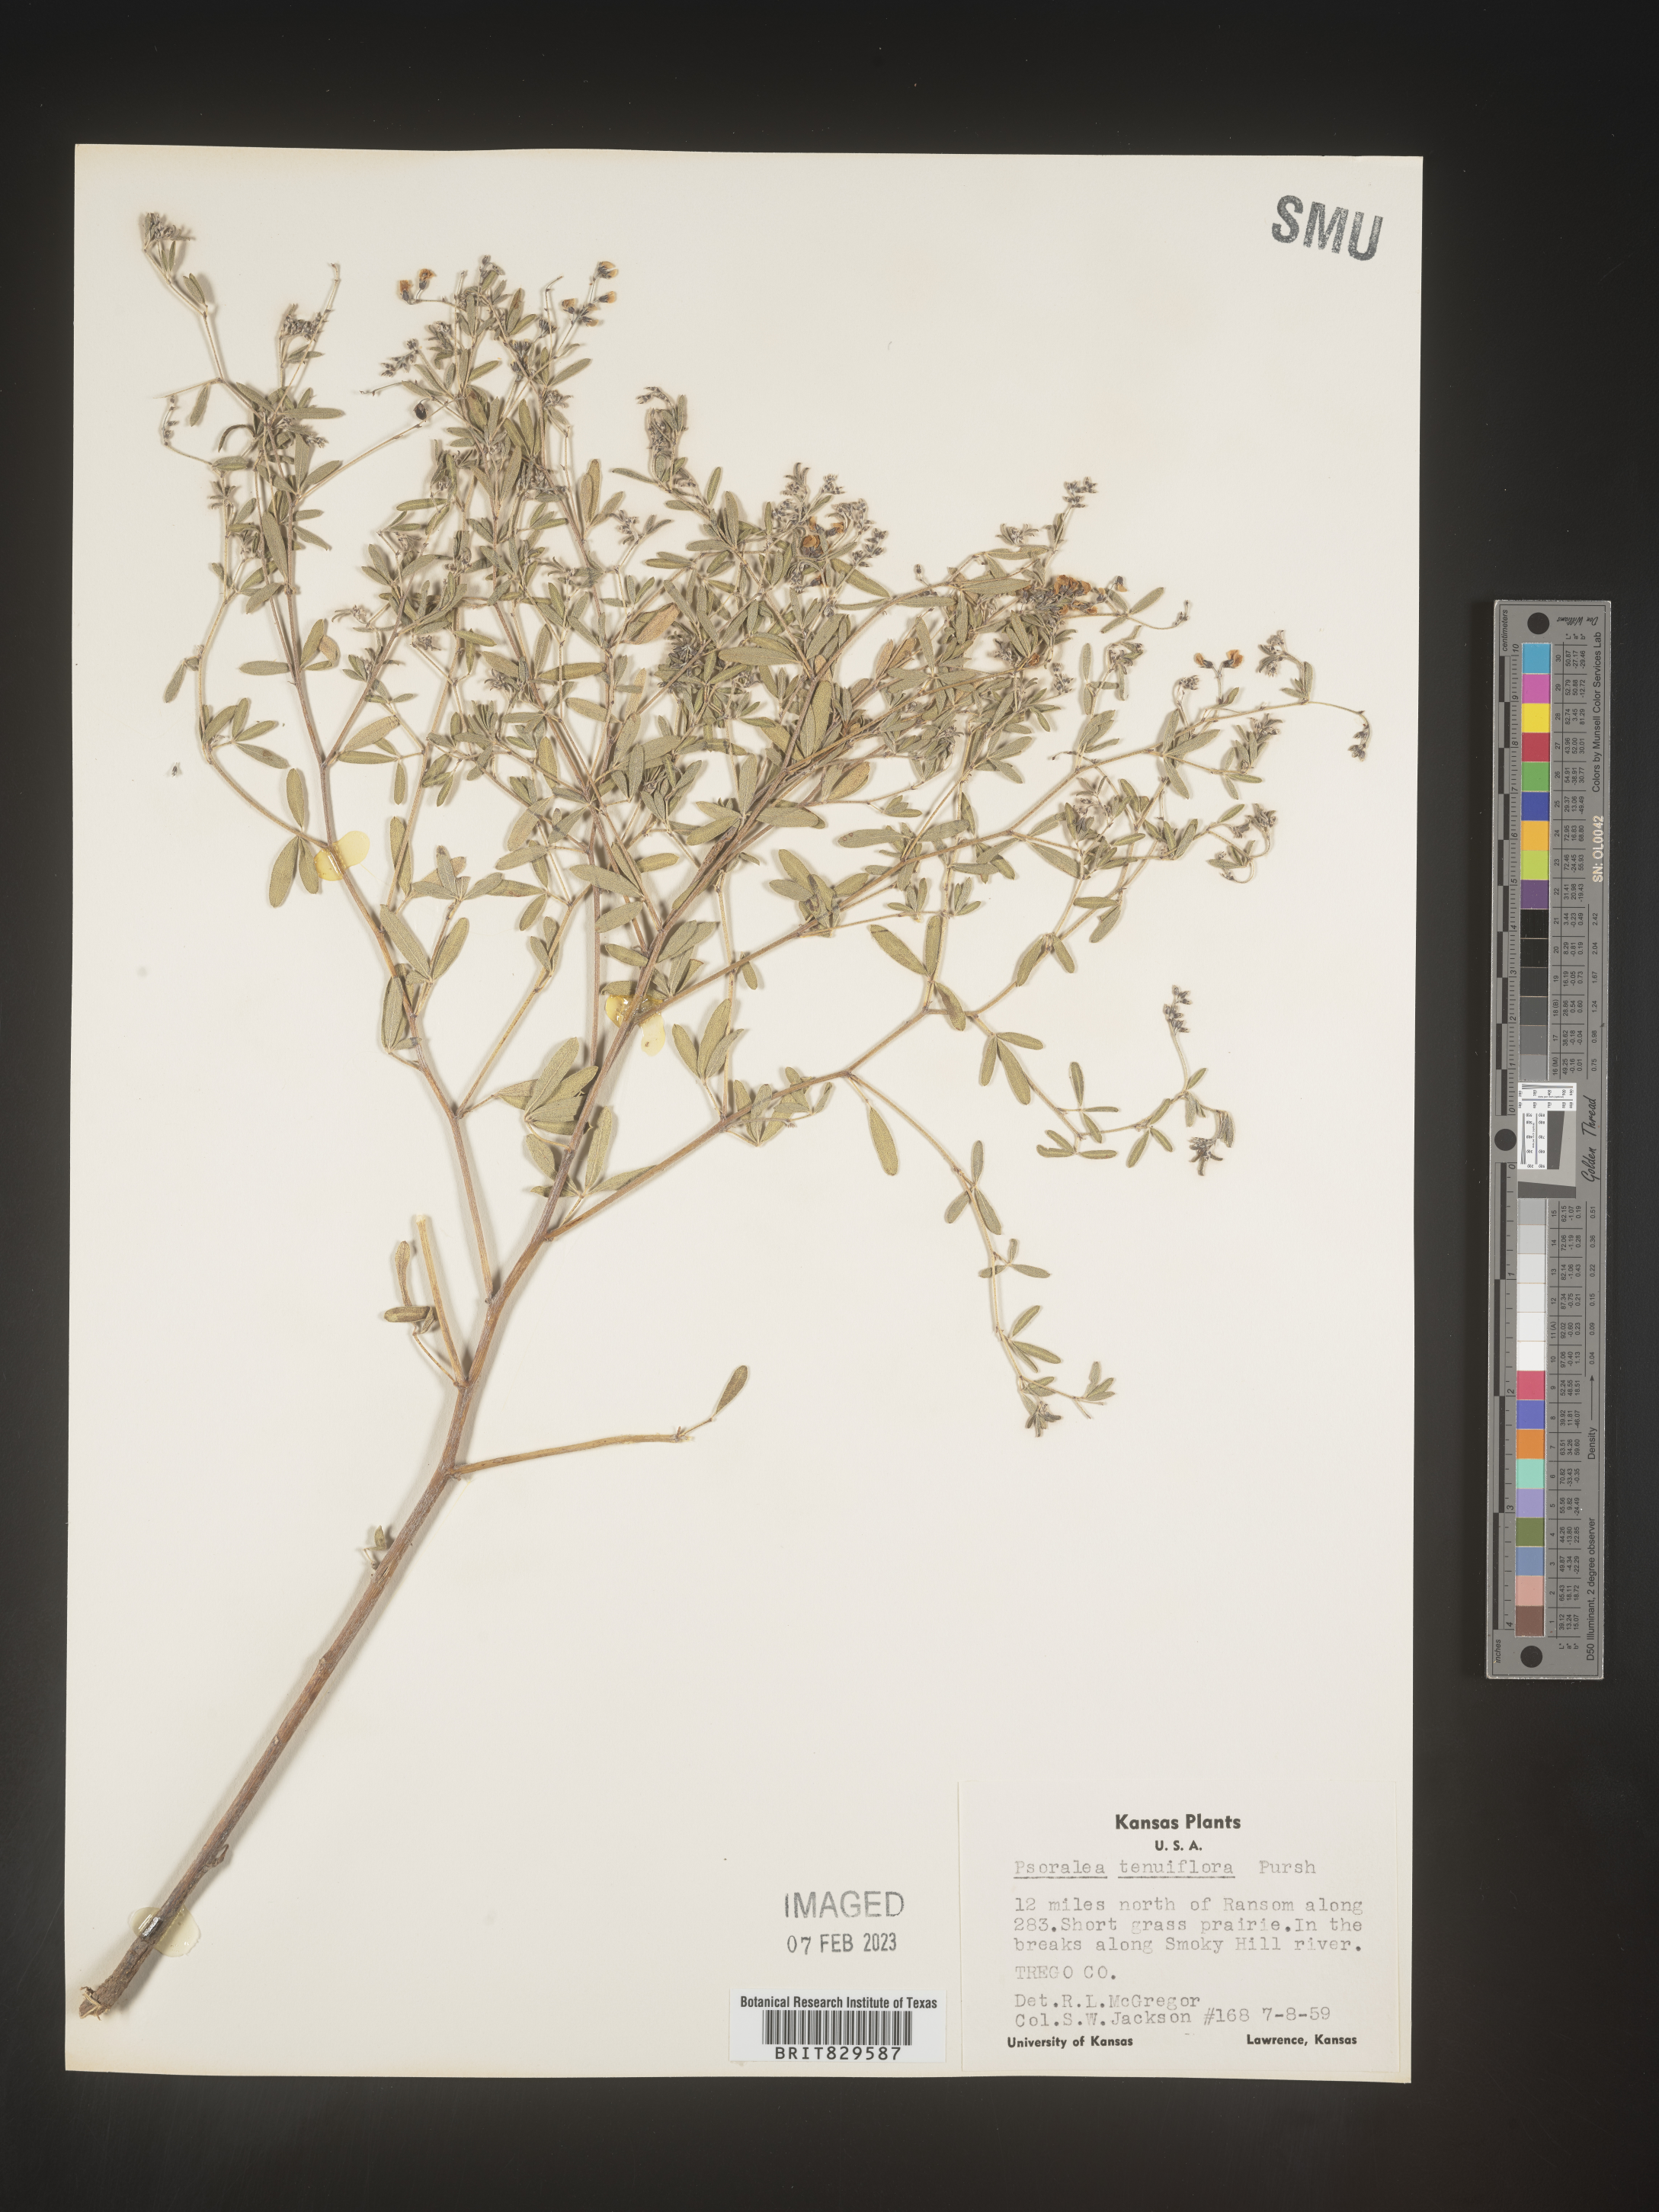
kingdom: Plantae
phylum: Tracheophyta
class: Magnoliopsida
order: Fabales
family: Fabaceae
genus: Pediomelum
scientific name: Pediomelum tenuiflorum
